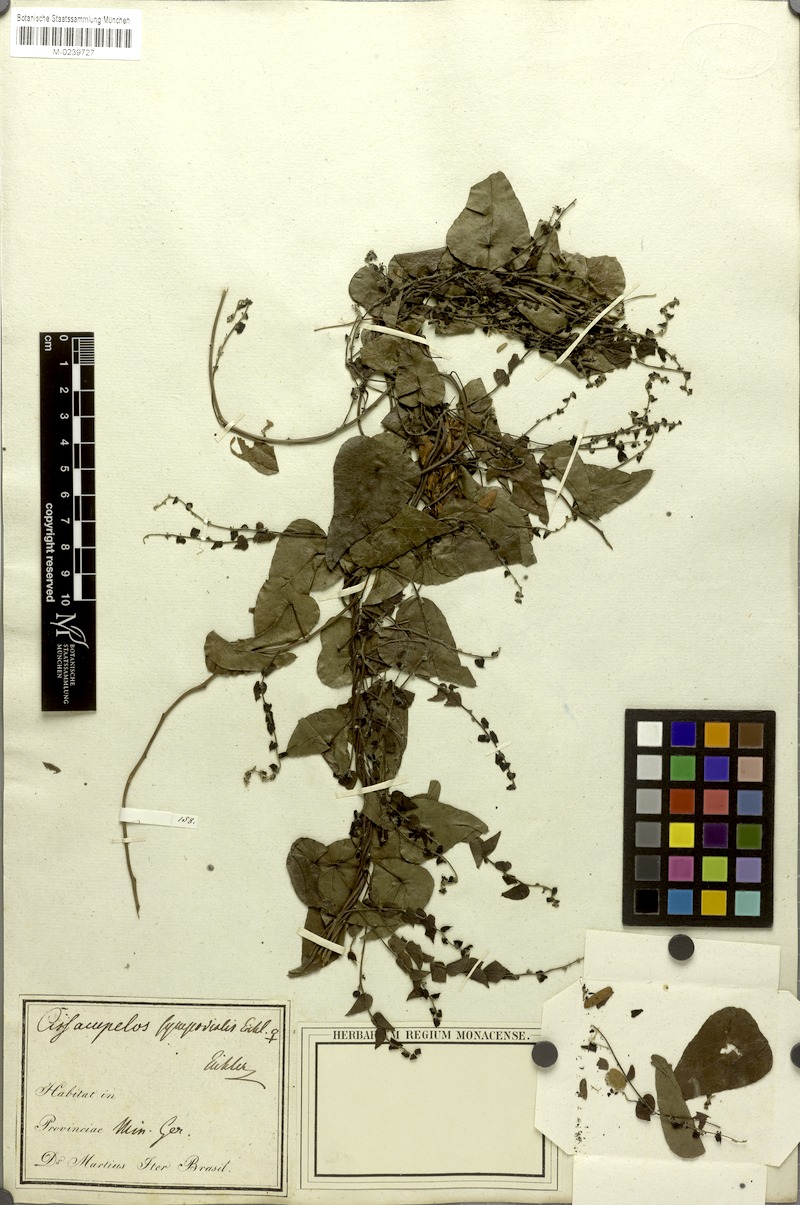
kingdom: Plantae
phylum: Tracheophyta
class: Magnoliopsida
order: Ranunculales
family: Menispermaceae
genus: Cissampelos
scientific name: Cissampelos sympodialis
